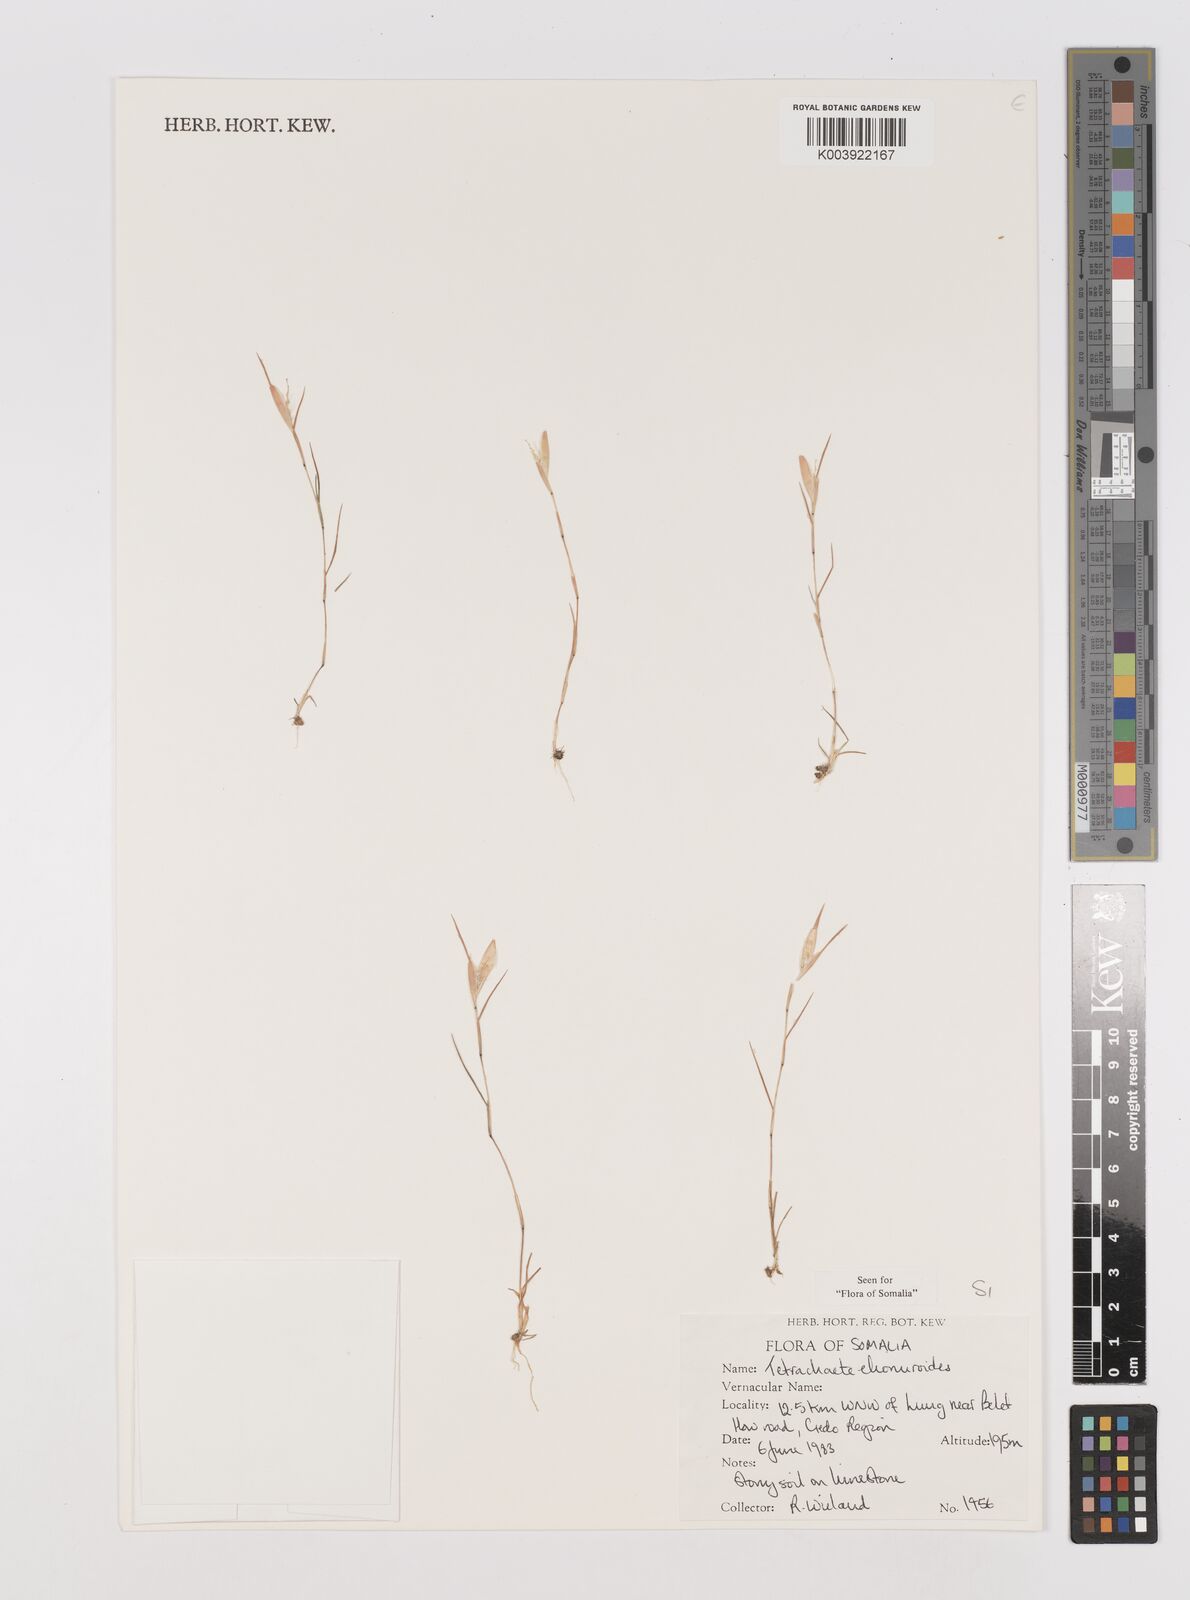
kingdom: Plantae
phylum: Tracheophyta
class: Liliopsida
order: Poales
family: Poaceae
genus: Tetrachaete
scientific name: Tetrachaete elionuroides
